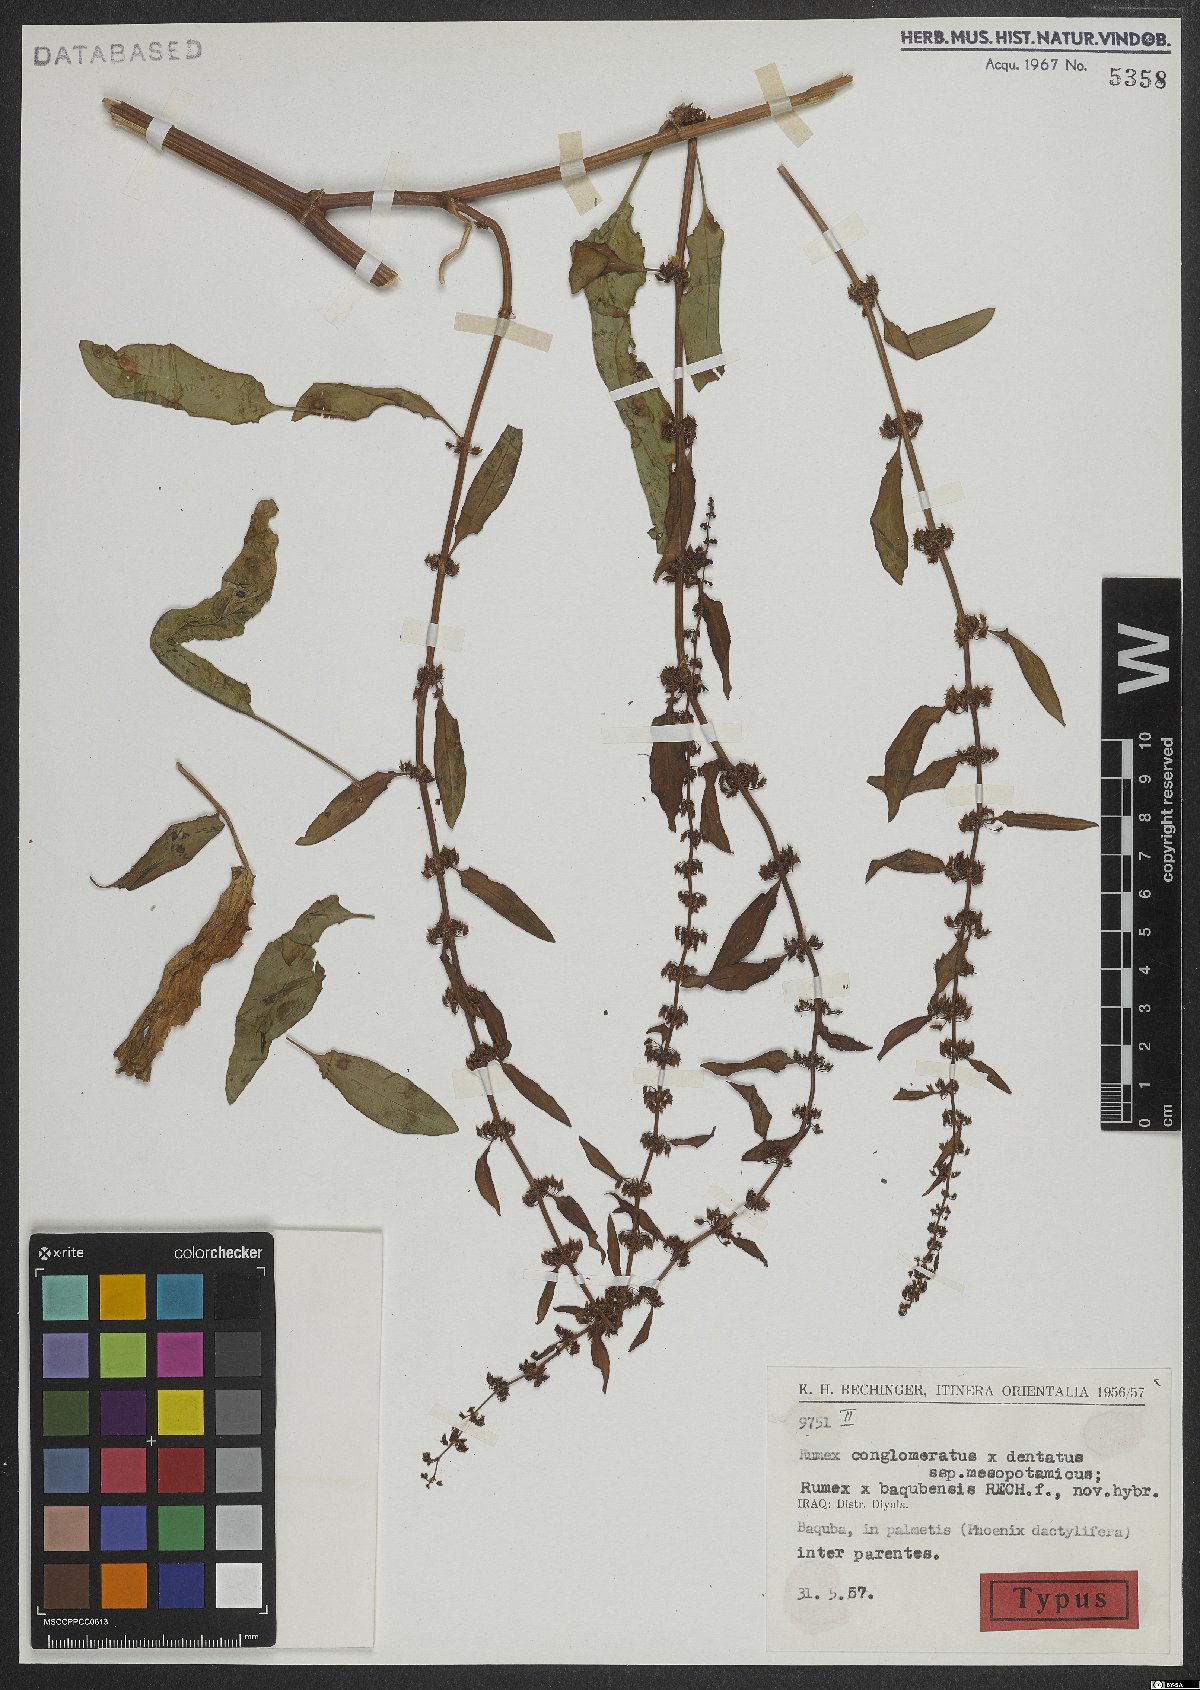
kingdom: Plantae
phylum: Tracheophyta
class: Magnoliopsida
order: Caryophyllales
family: Polygonaceae
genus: Rumex
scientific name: Rumex baqubensis
